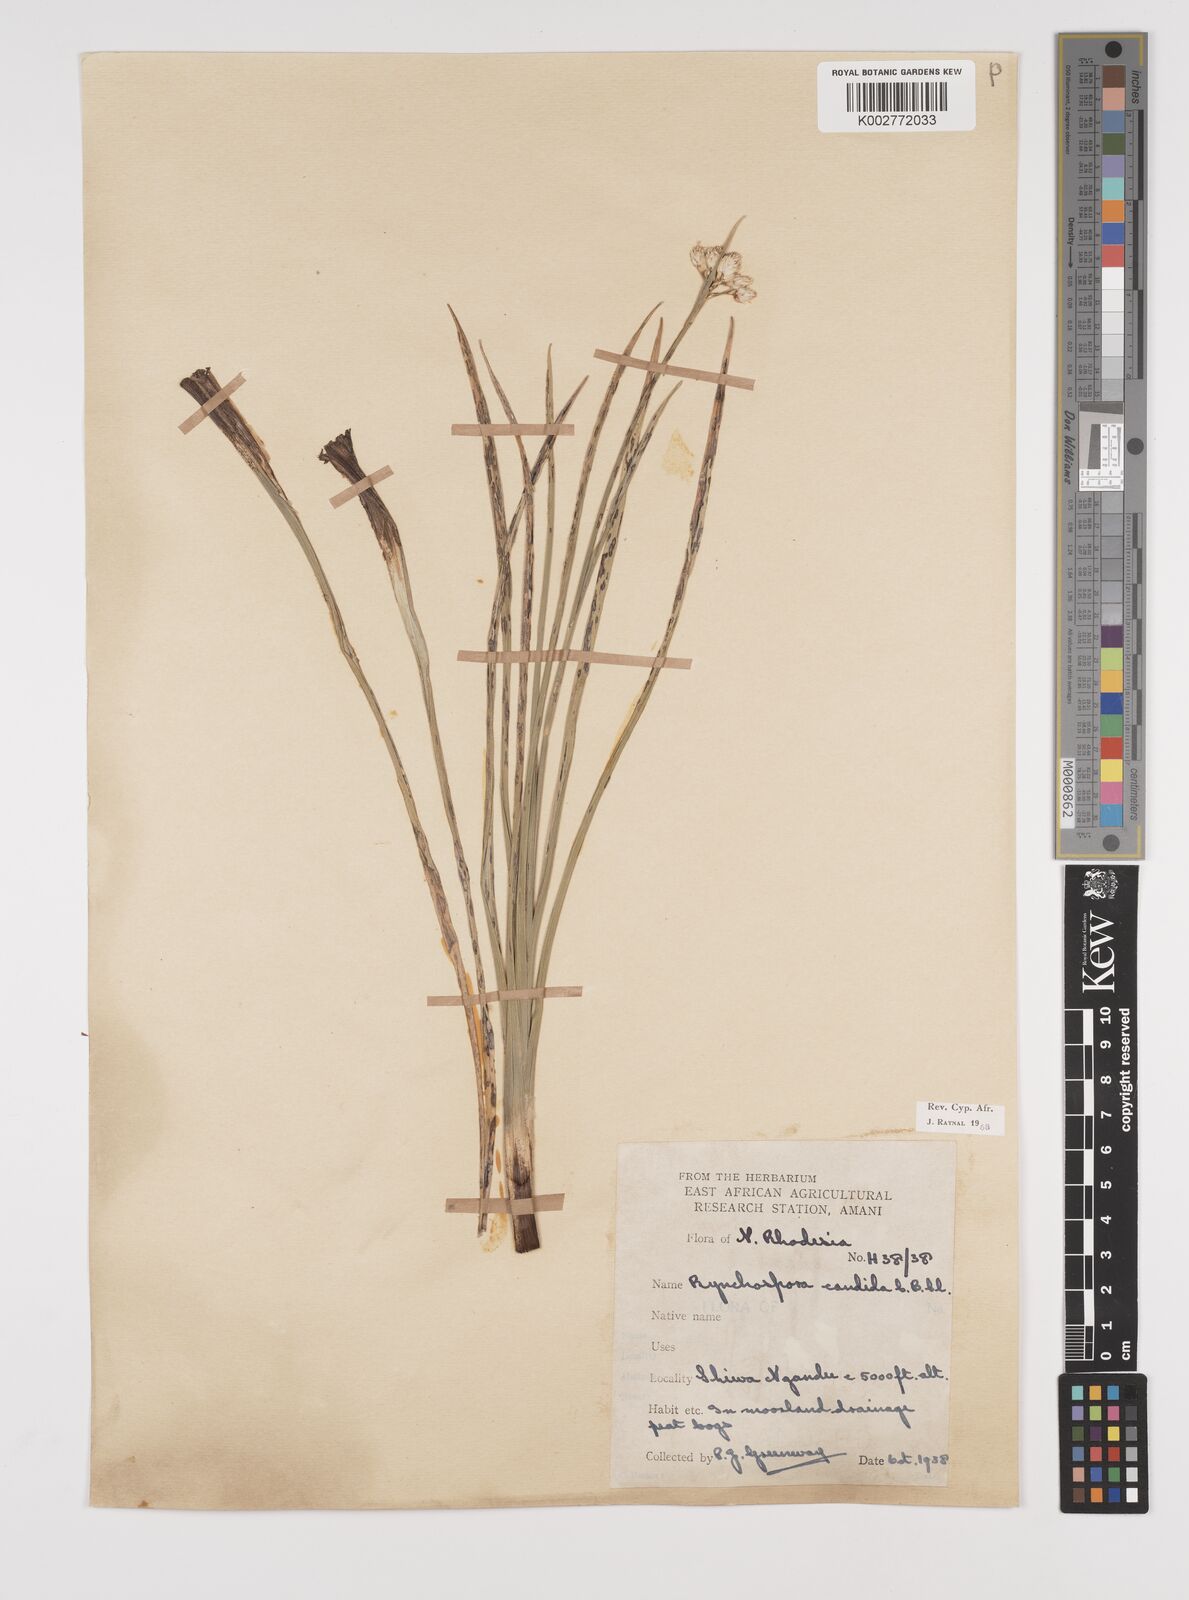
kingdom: Plantae
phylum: Tracheophyta
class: Liliopsida
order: Poales
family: Cyperaceae
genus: Rhynchospora
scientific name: Rhynchospora candida
